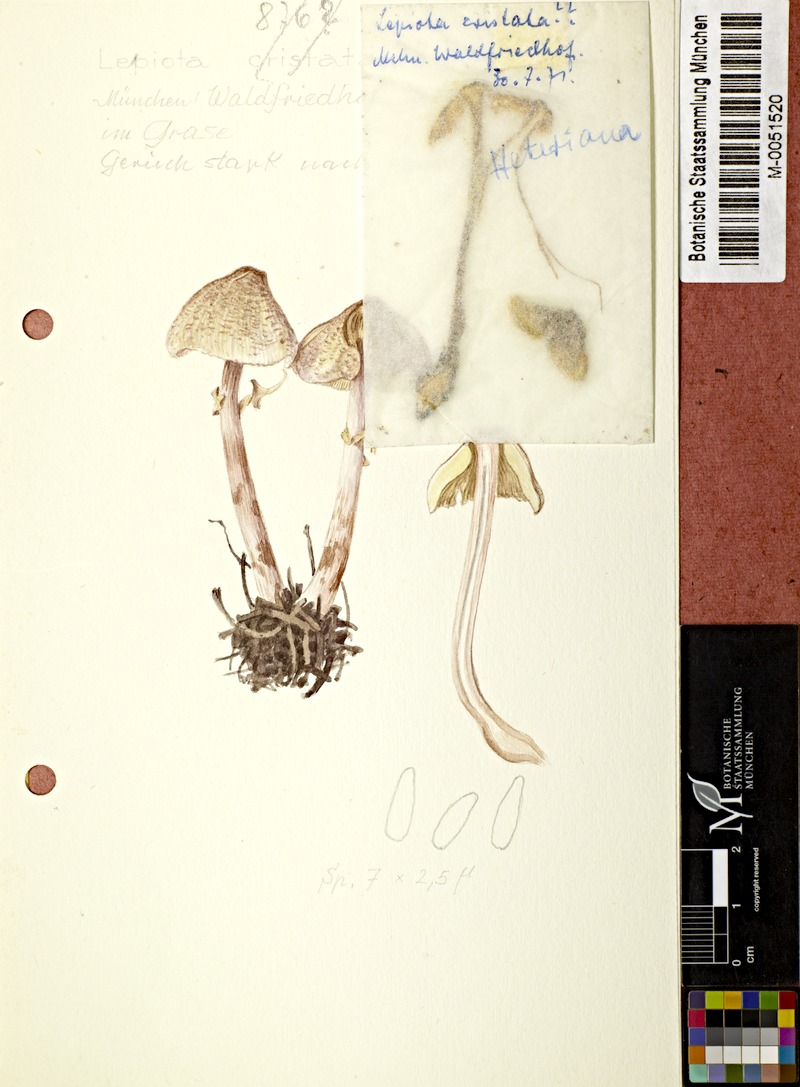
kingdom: Fungi
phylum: Basidiomycota
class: Agaricomycetes
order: Agaricales
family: Agaricaceae
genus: Lepiota
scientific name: Lepiota
